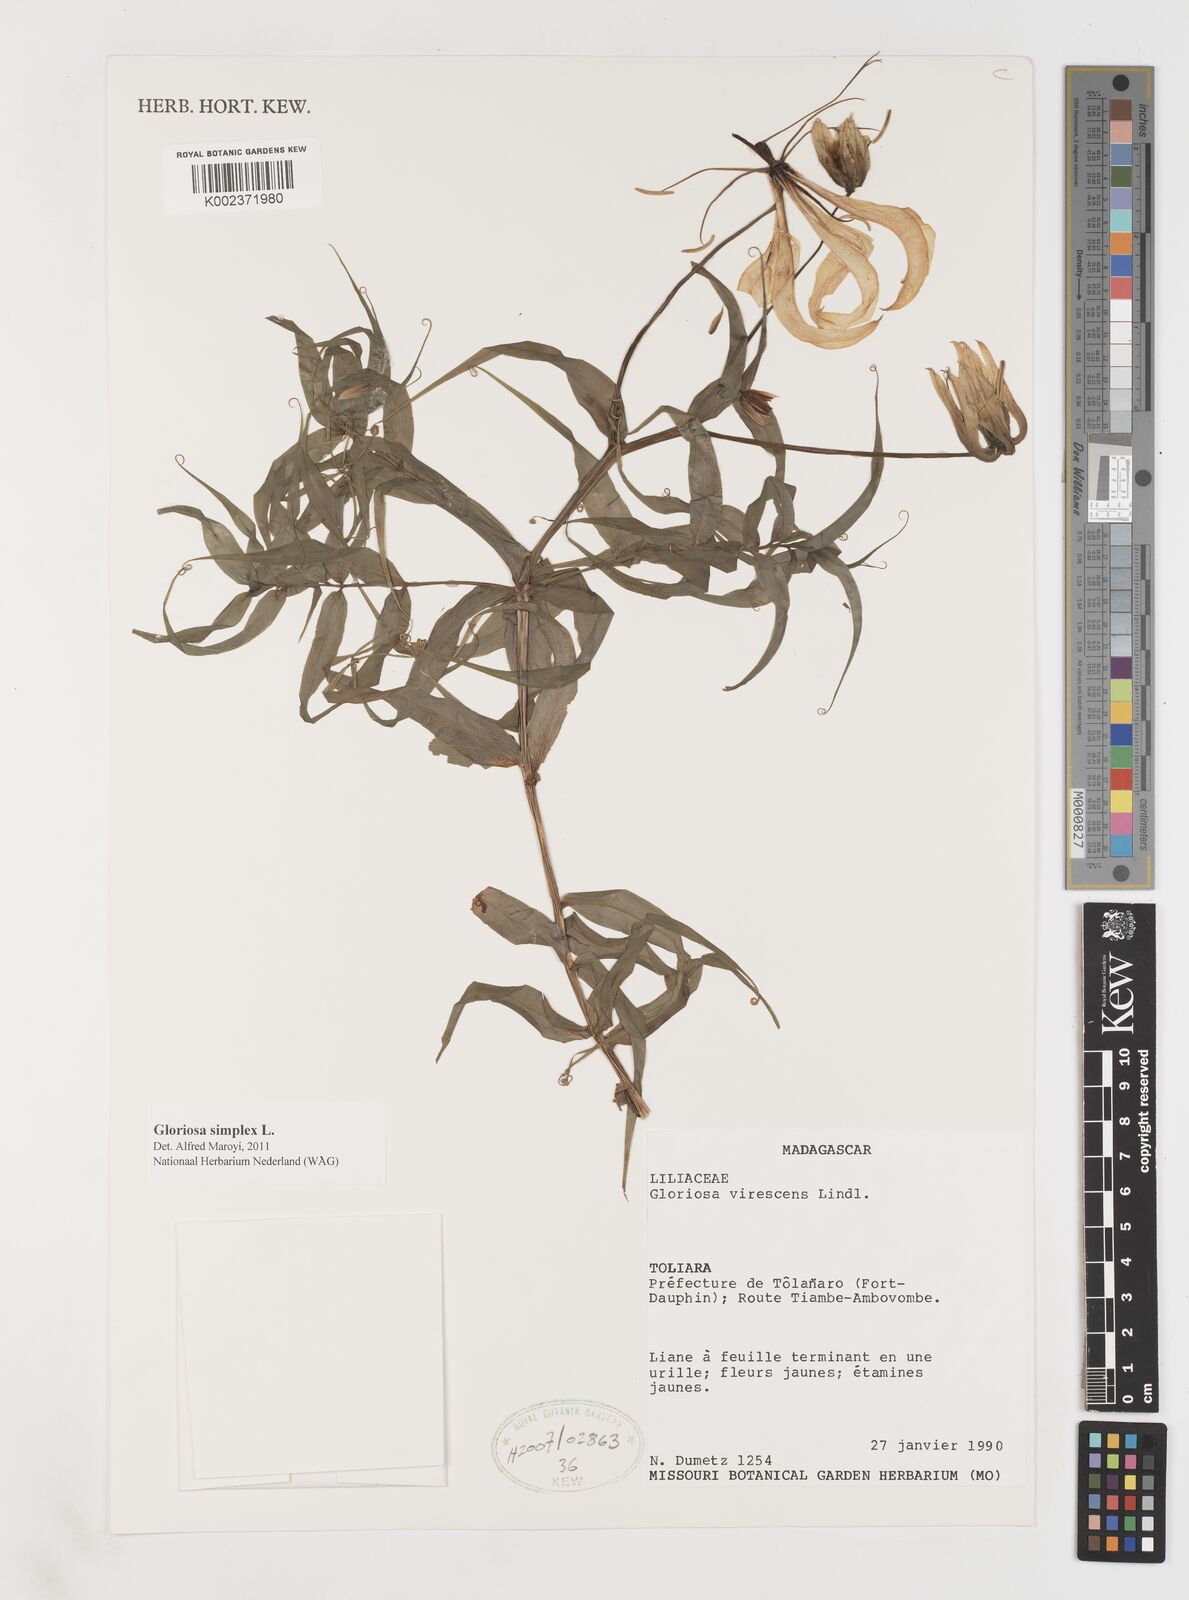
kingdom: Plantae
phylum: Tracheophyta
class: Liliopsida
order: Liliales
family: Colchicaceae
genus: Gloriosa
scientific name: Gloriosa simplex
